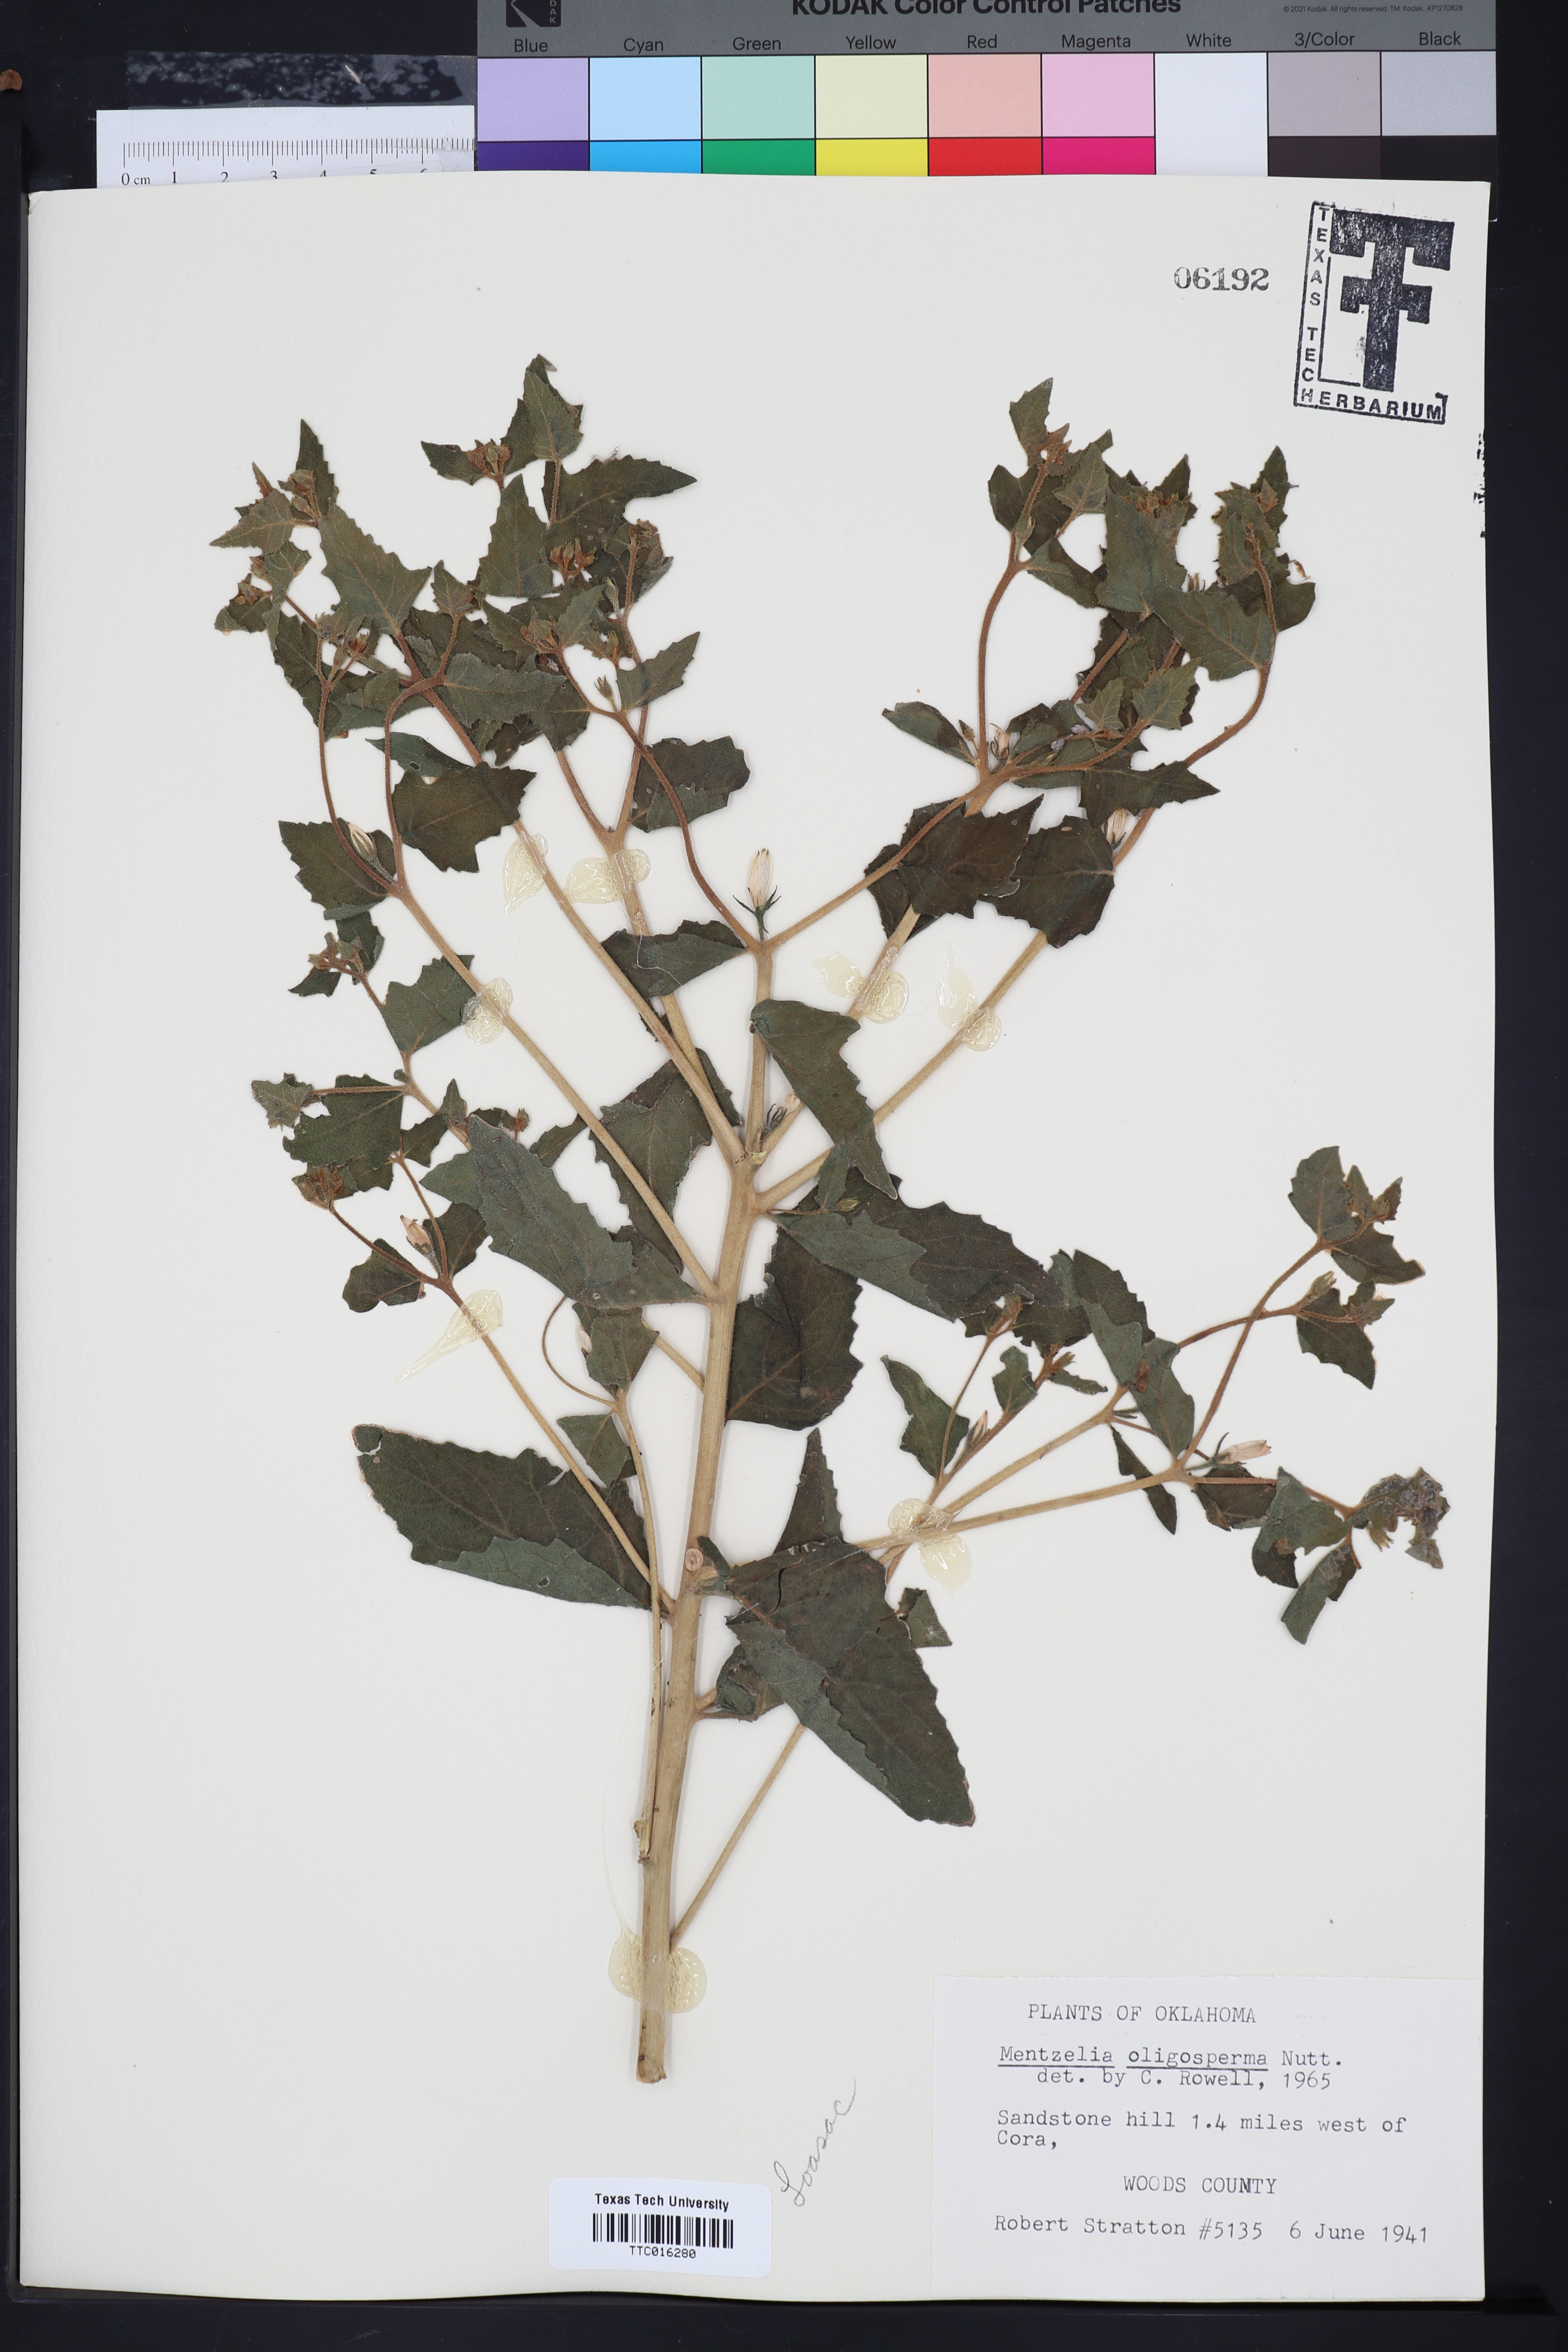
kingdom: Plantae
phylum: Tracheophyta
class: Magnoliopsida
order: Cornales
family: Loasaceae
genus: Mentzelia
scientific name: Mentzelia oligosperma
